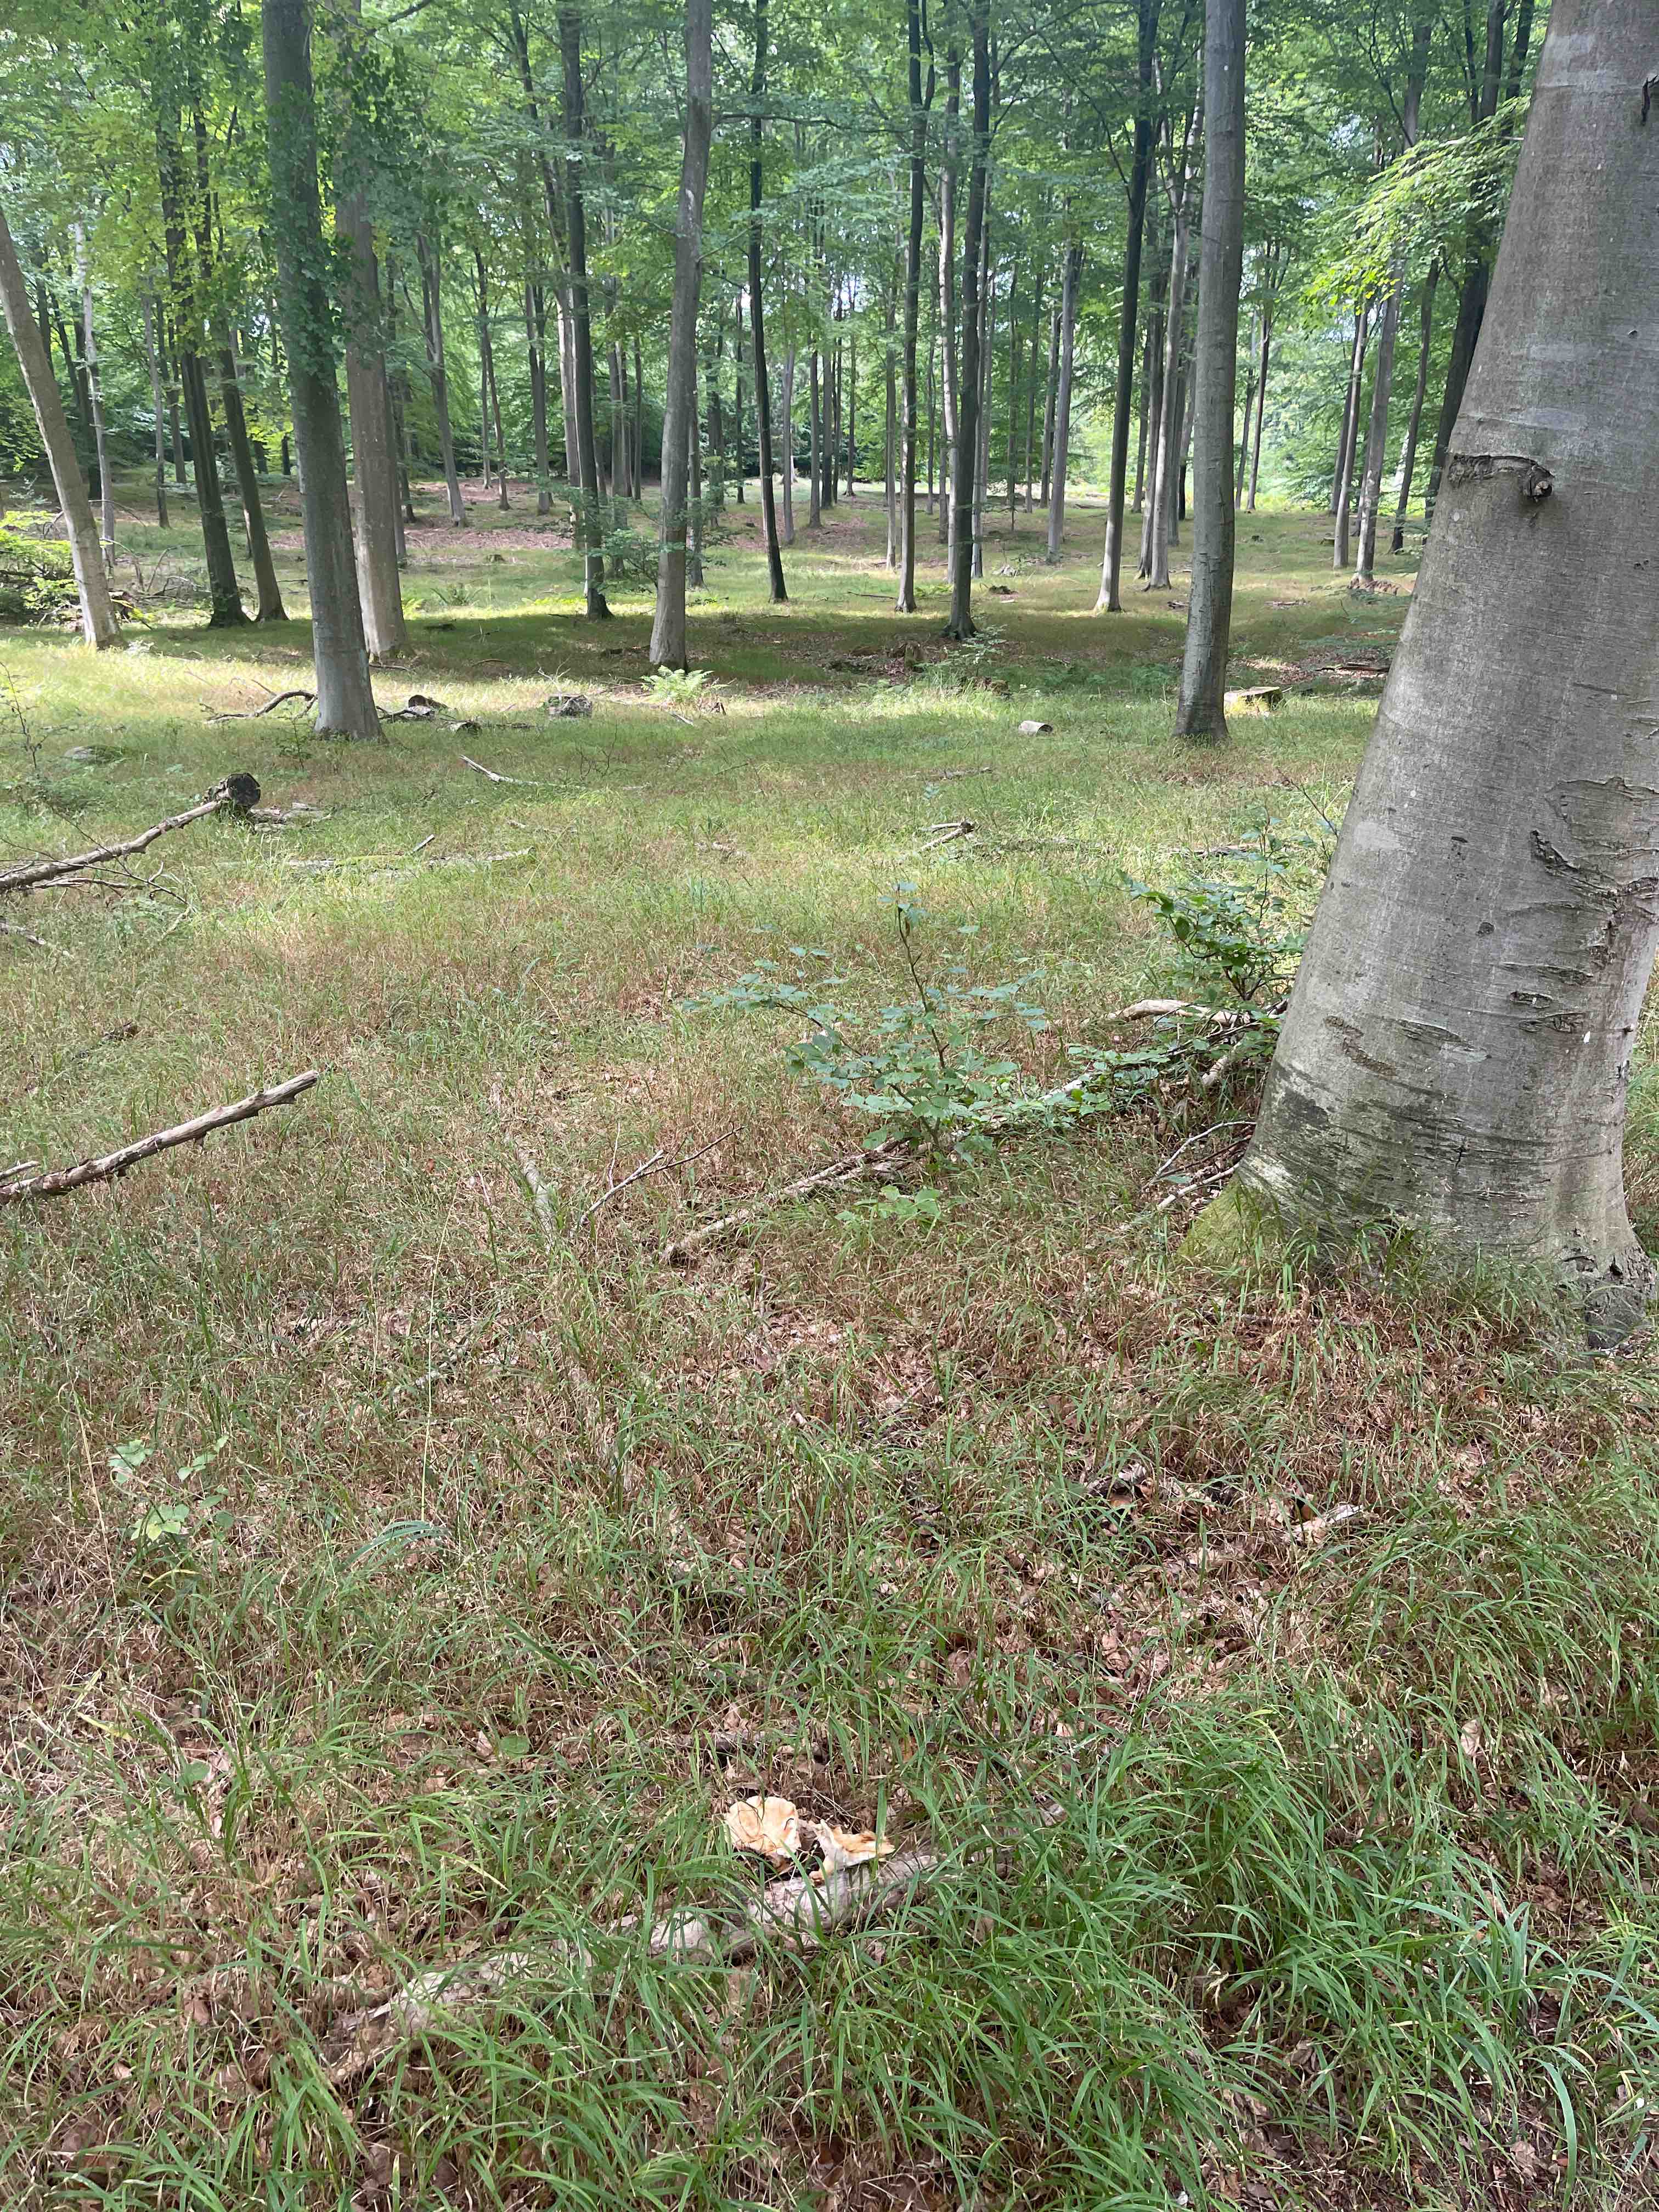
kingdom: Fungi
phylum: Basidiomycota
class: Agaricomycetes
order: Polyporales
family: Polyporaceae
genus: Polyporus
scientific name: Polyporus tuberaster
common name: knoldet stilkporesvamp
